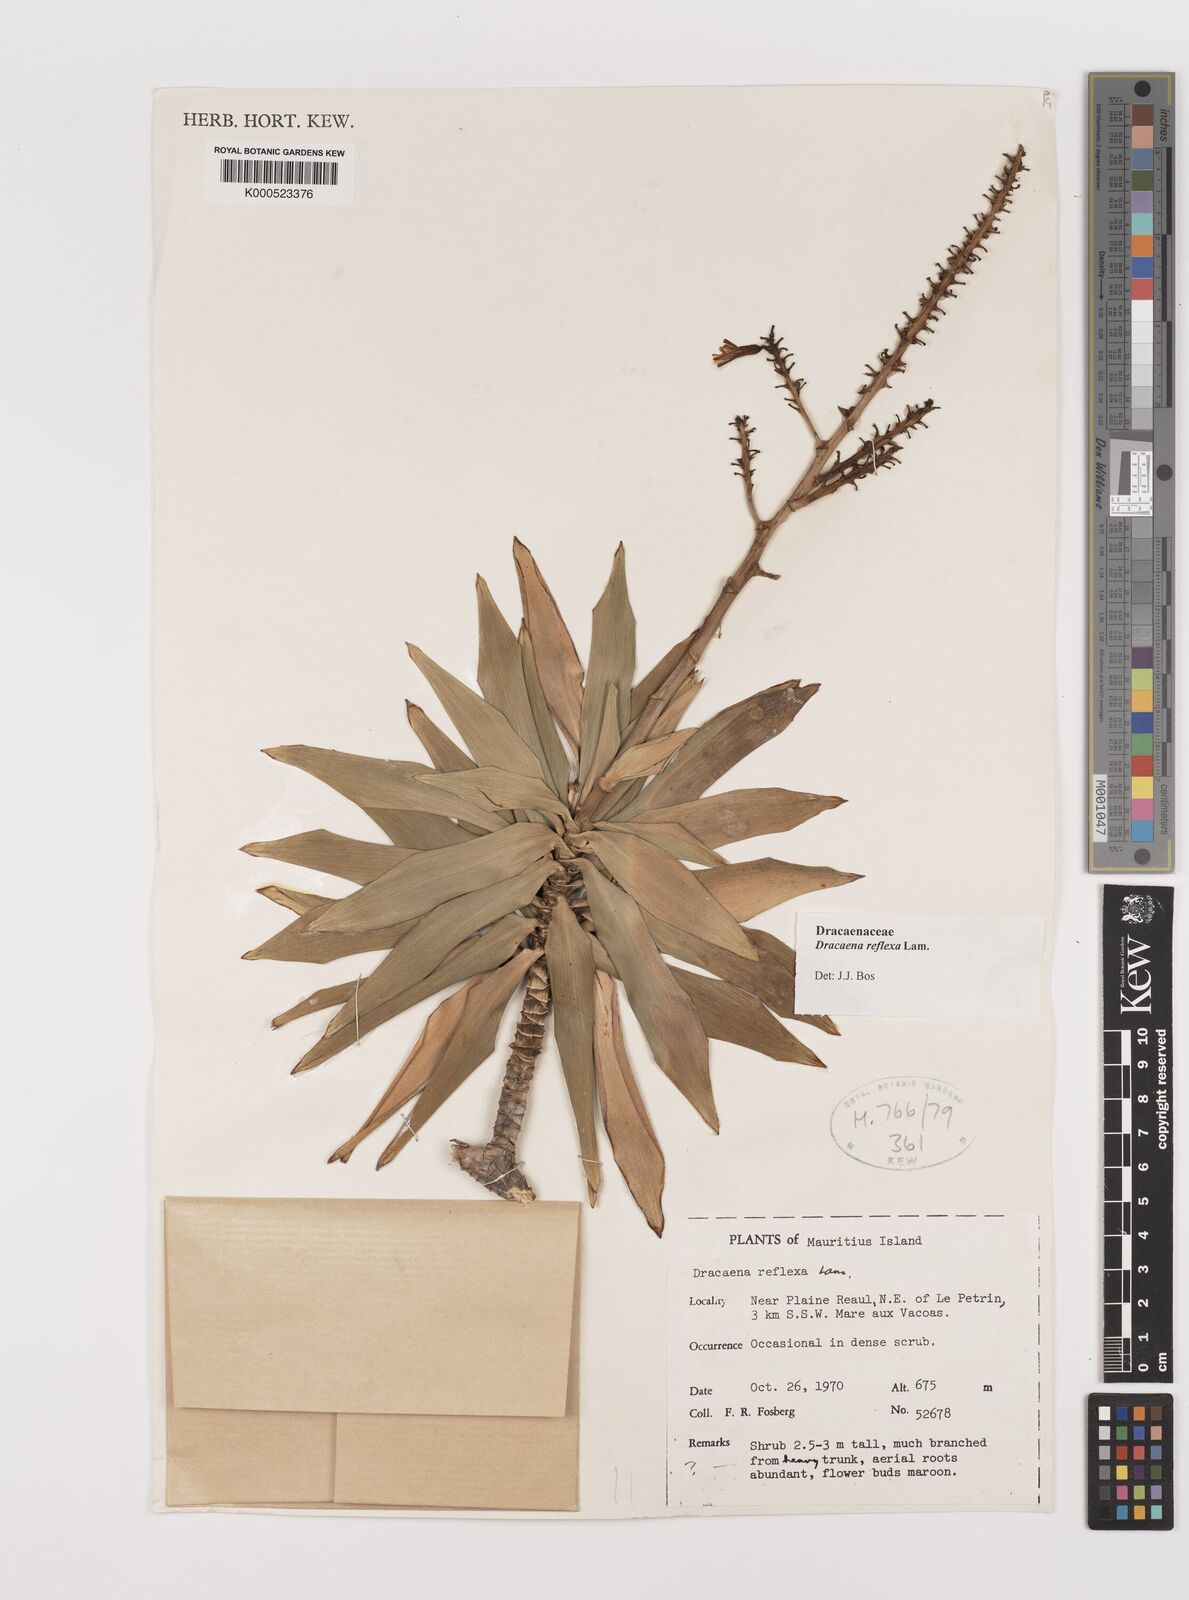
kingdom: Plantae
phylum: Tracheophyta
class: Liliopsida
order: Asparagales
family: Asparagaceae
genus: Dracaena
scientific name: Dracaena reflexa
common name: Song-of-india
